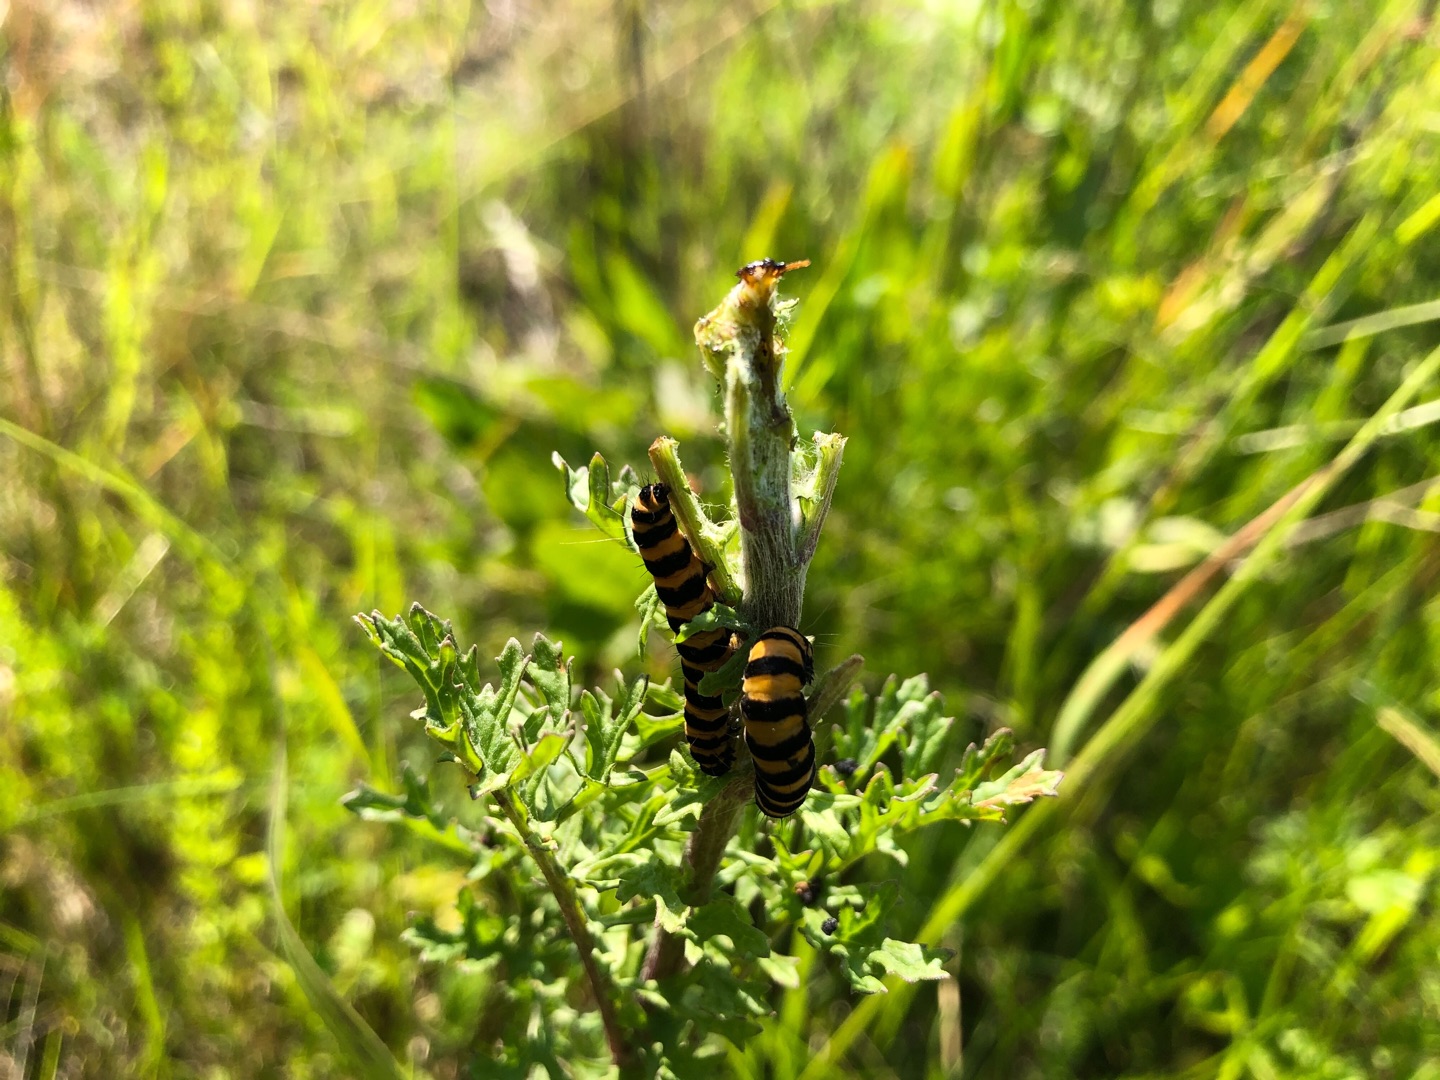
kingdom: Animalia
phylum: Arthropoda
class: Insecta
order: Lepidoptera
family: Erebidae
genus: Tyria
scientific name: Tyria jacobaeae
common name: Blodplet
